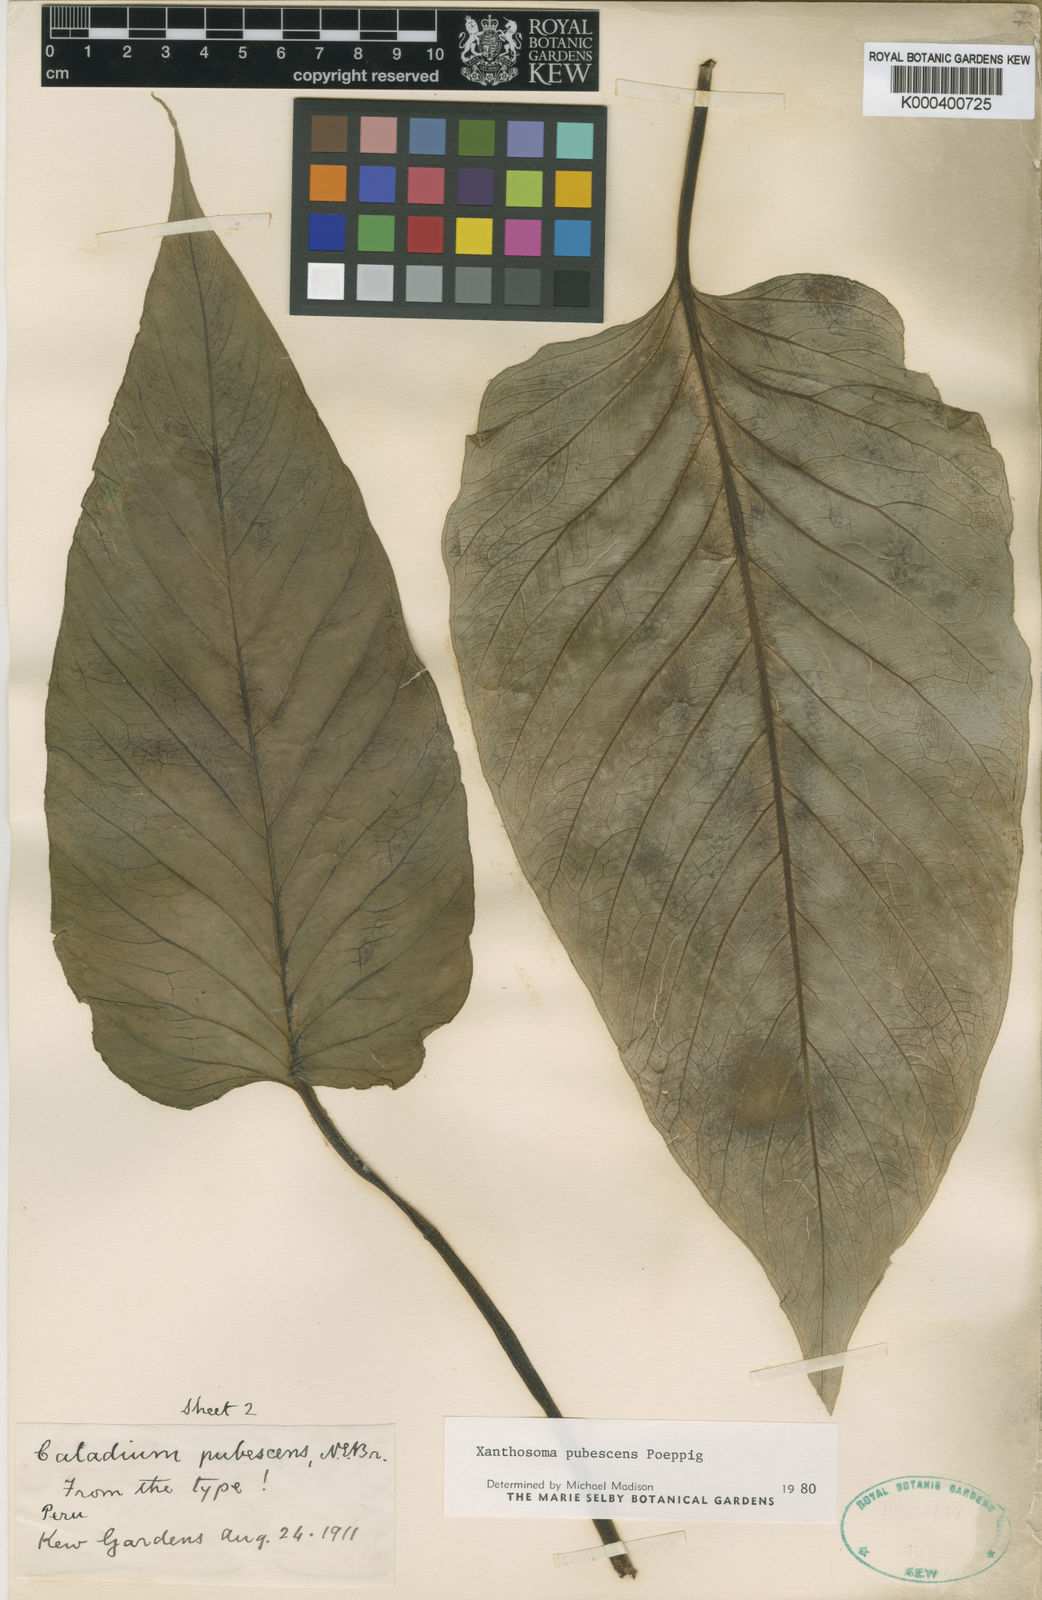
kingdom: Plantae
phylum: Tracheophyta
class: Liliopsida
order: Alismatales
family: Araceae
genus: Xanthosoma
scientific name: Xanthosoma pubescens
